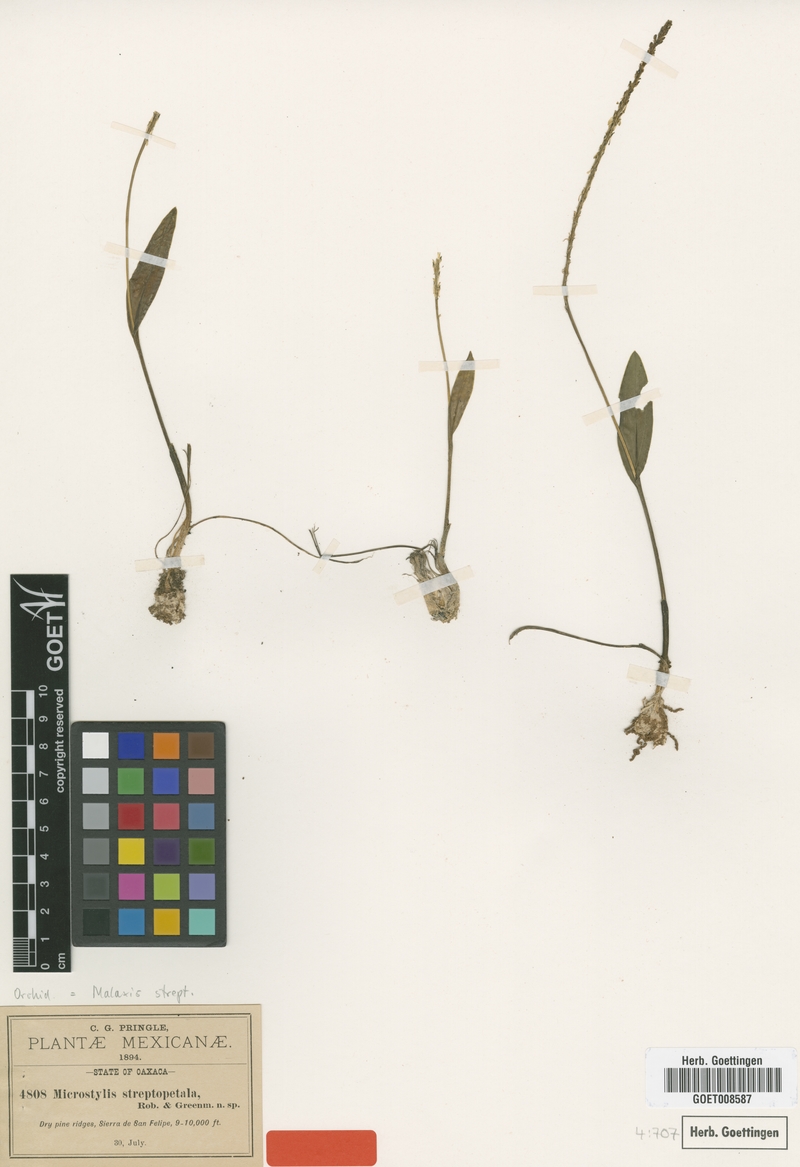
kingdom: Plantae
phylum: Tracheophyta
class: Liliopsida
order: Asparagales
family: Orchidaceae
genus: Malaxis
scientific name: Malaxis streptopetala
